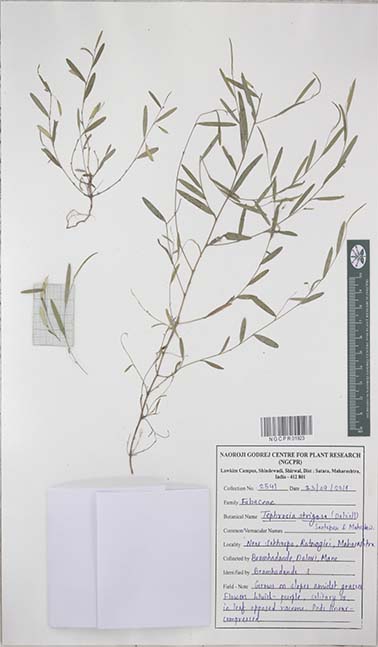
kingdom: Plantae
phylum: Tracheophyta
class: Magnoliopsida
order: Fabales
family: Fabaceae
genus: Tephrosia
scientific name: Tephrosia strigosa
